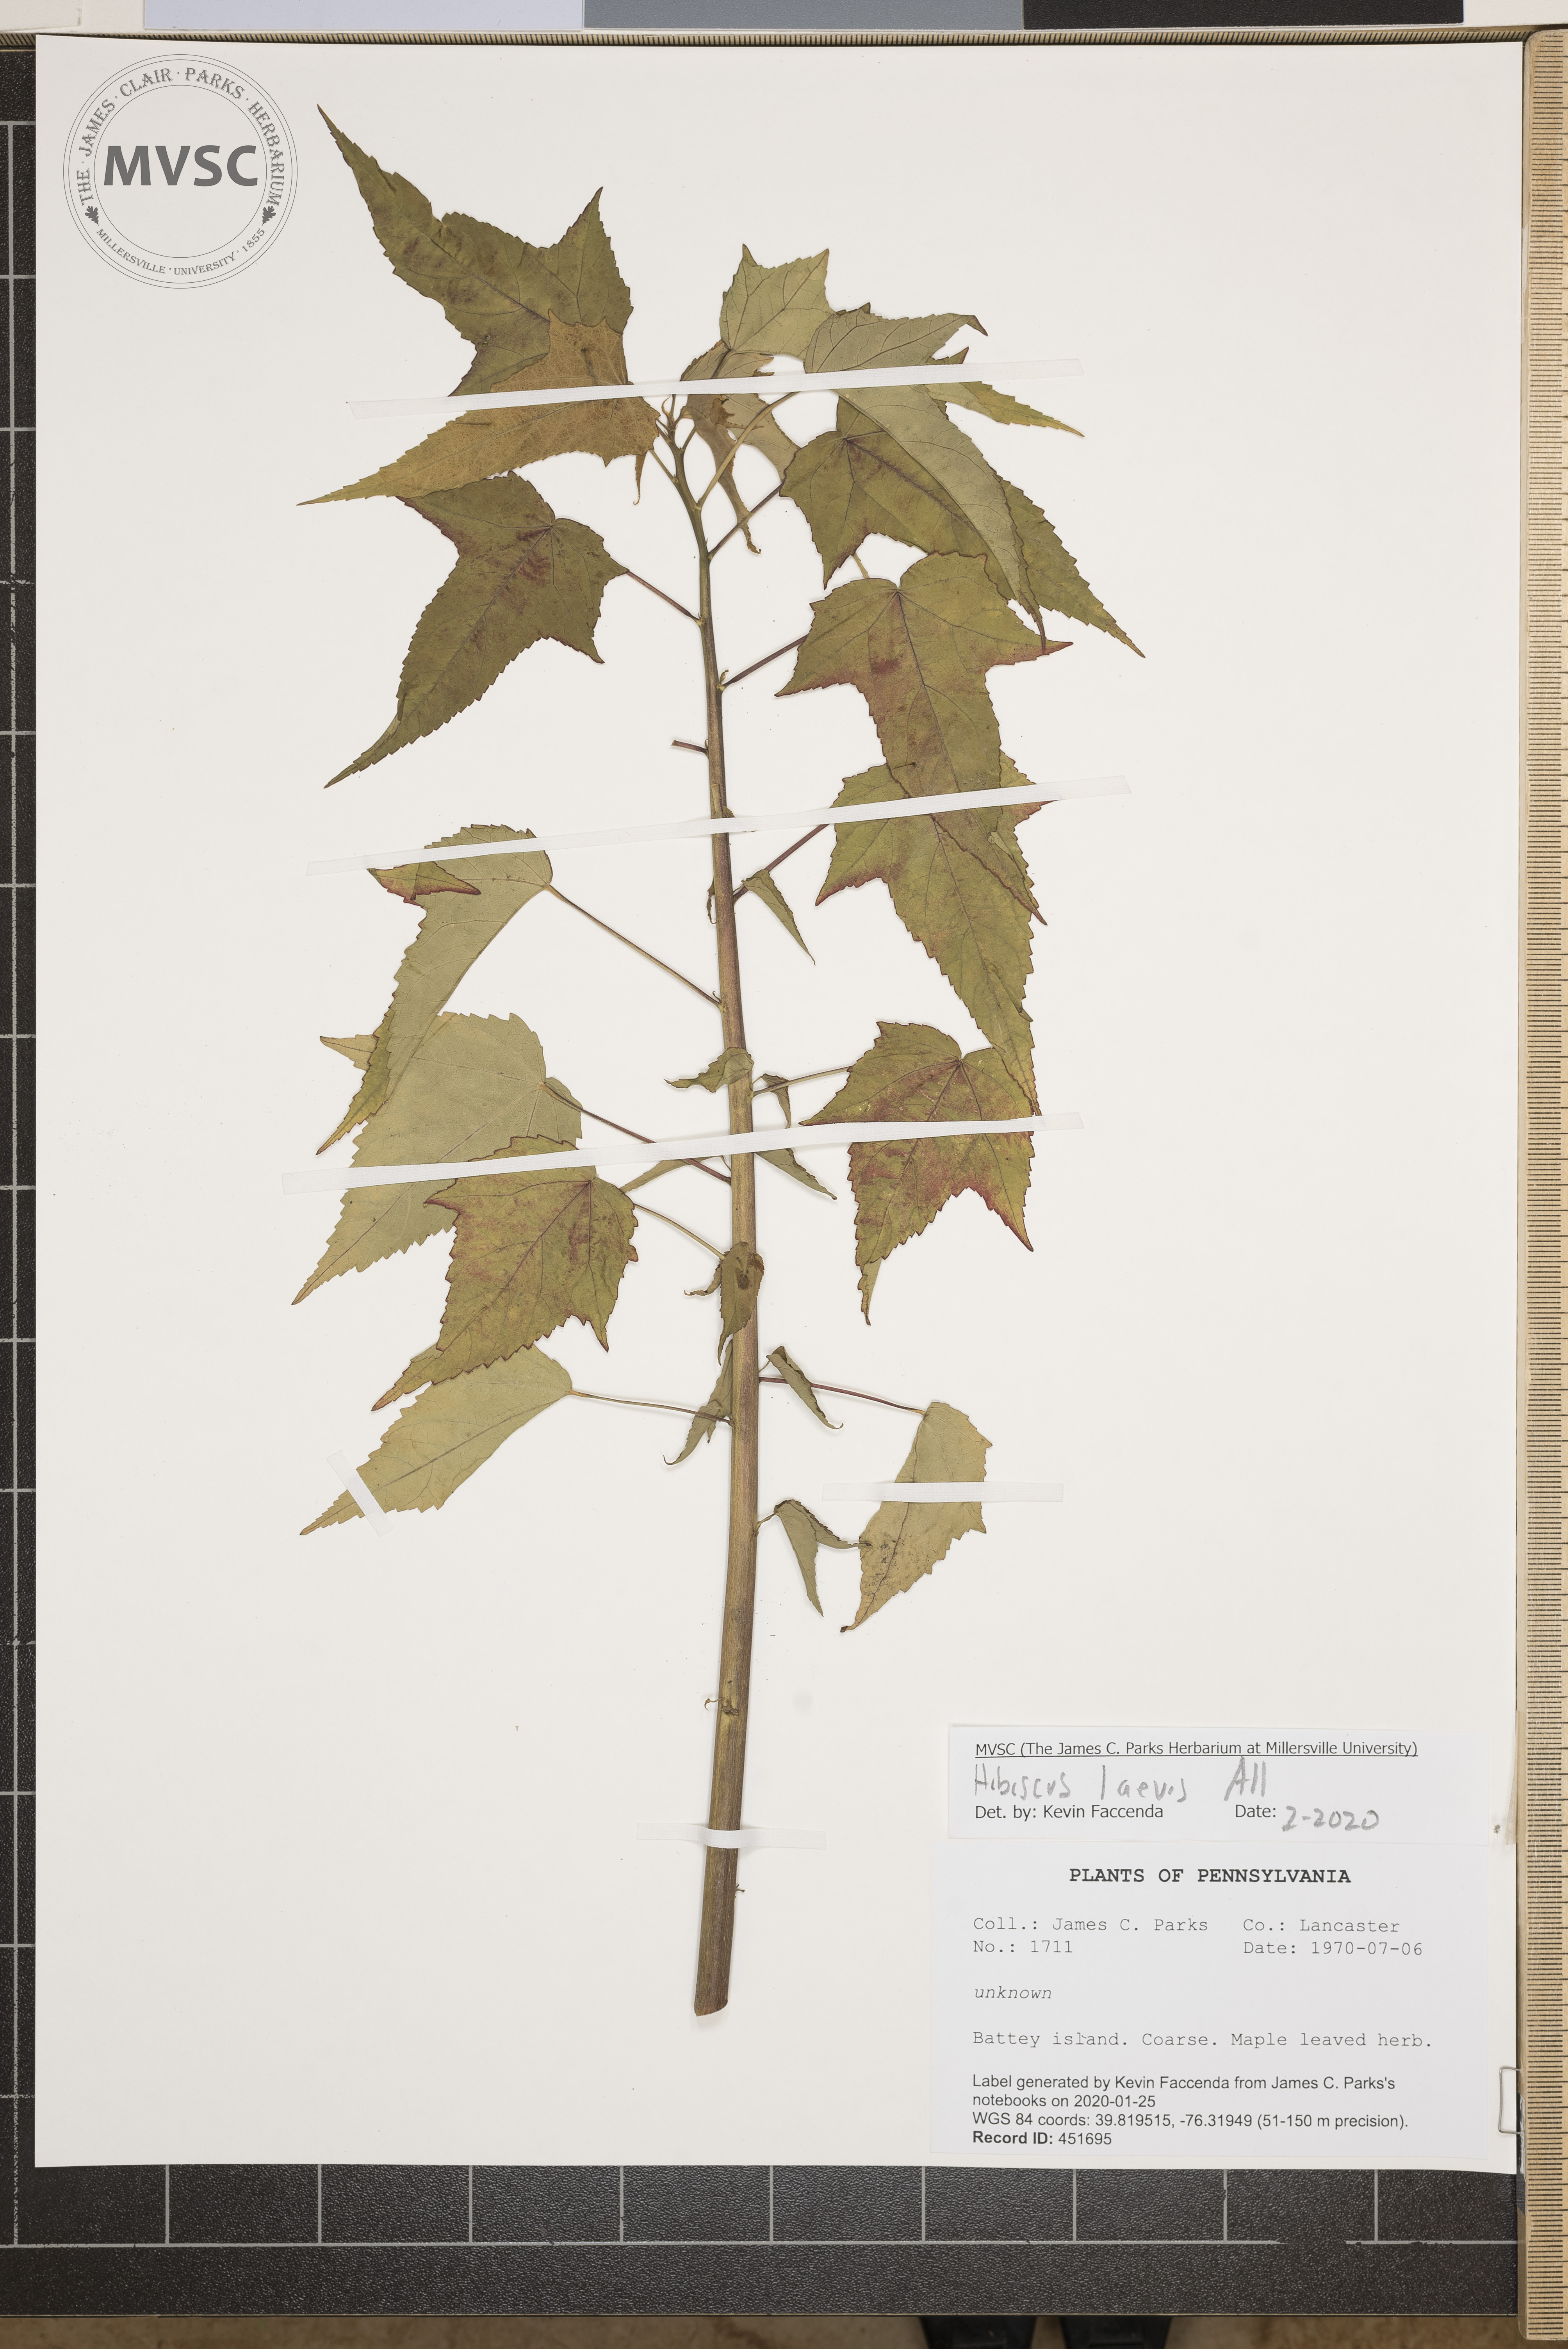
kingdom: Plantae
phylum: Tracheophyta
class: Magnoliopsida
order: Malvales
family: Malvaceae
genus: Hibiscus
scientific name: Hibiscus laevis
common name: Scarlet rose-mallow
